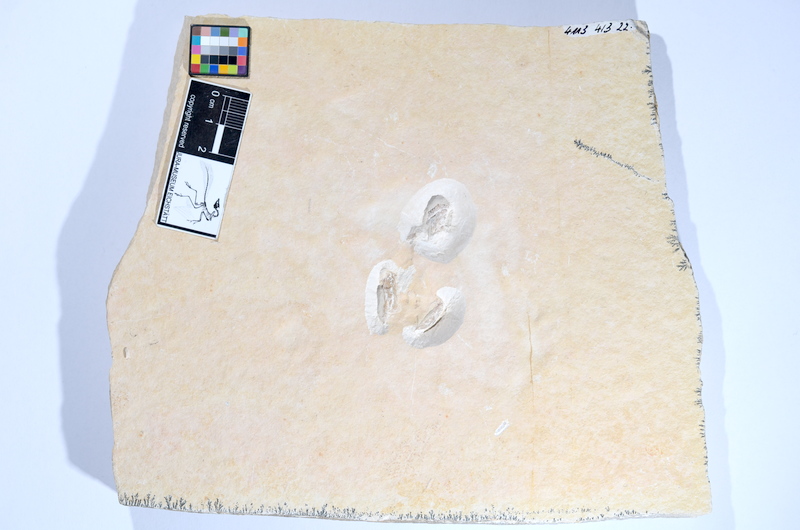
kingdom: Animalia
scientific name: Animalia
